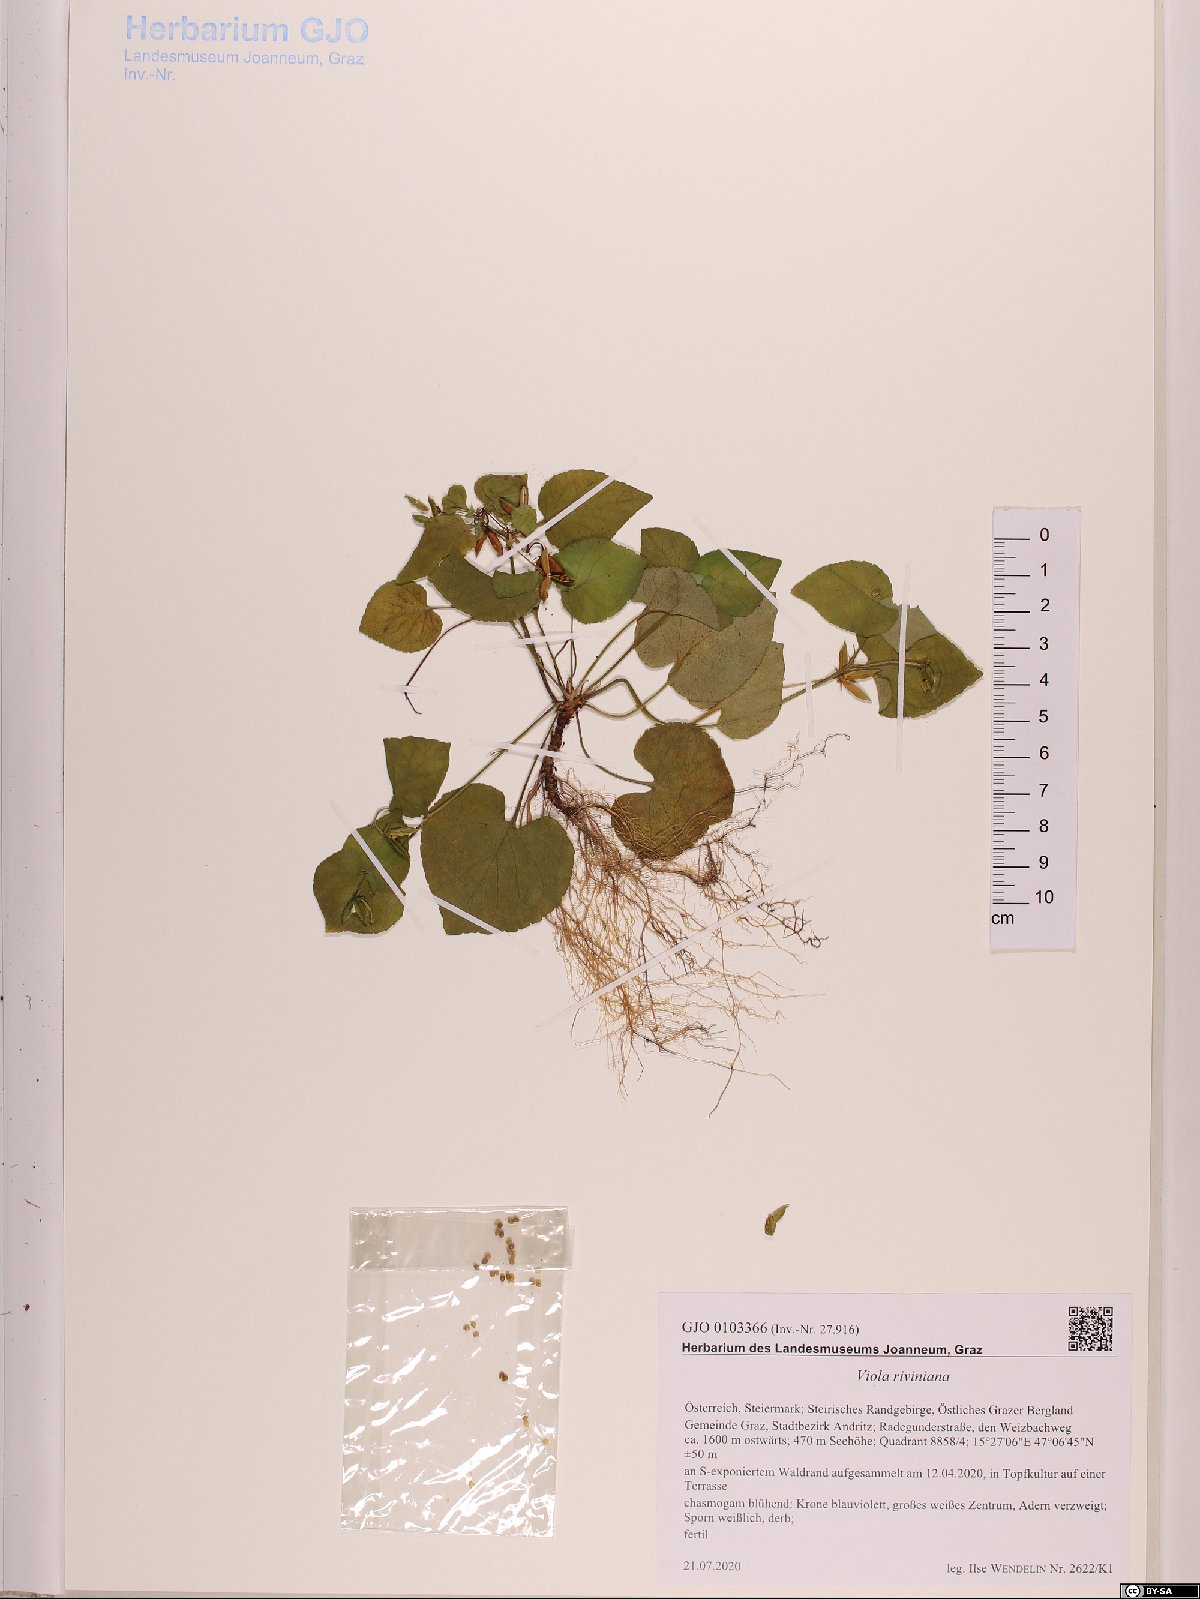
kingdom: Plantae
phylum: Tracheophyta
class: Magnoliopsida
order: Malpighiales
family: Violaceae
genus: Viola
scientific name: Viola riviniana
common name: Common dog-violet
